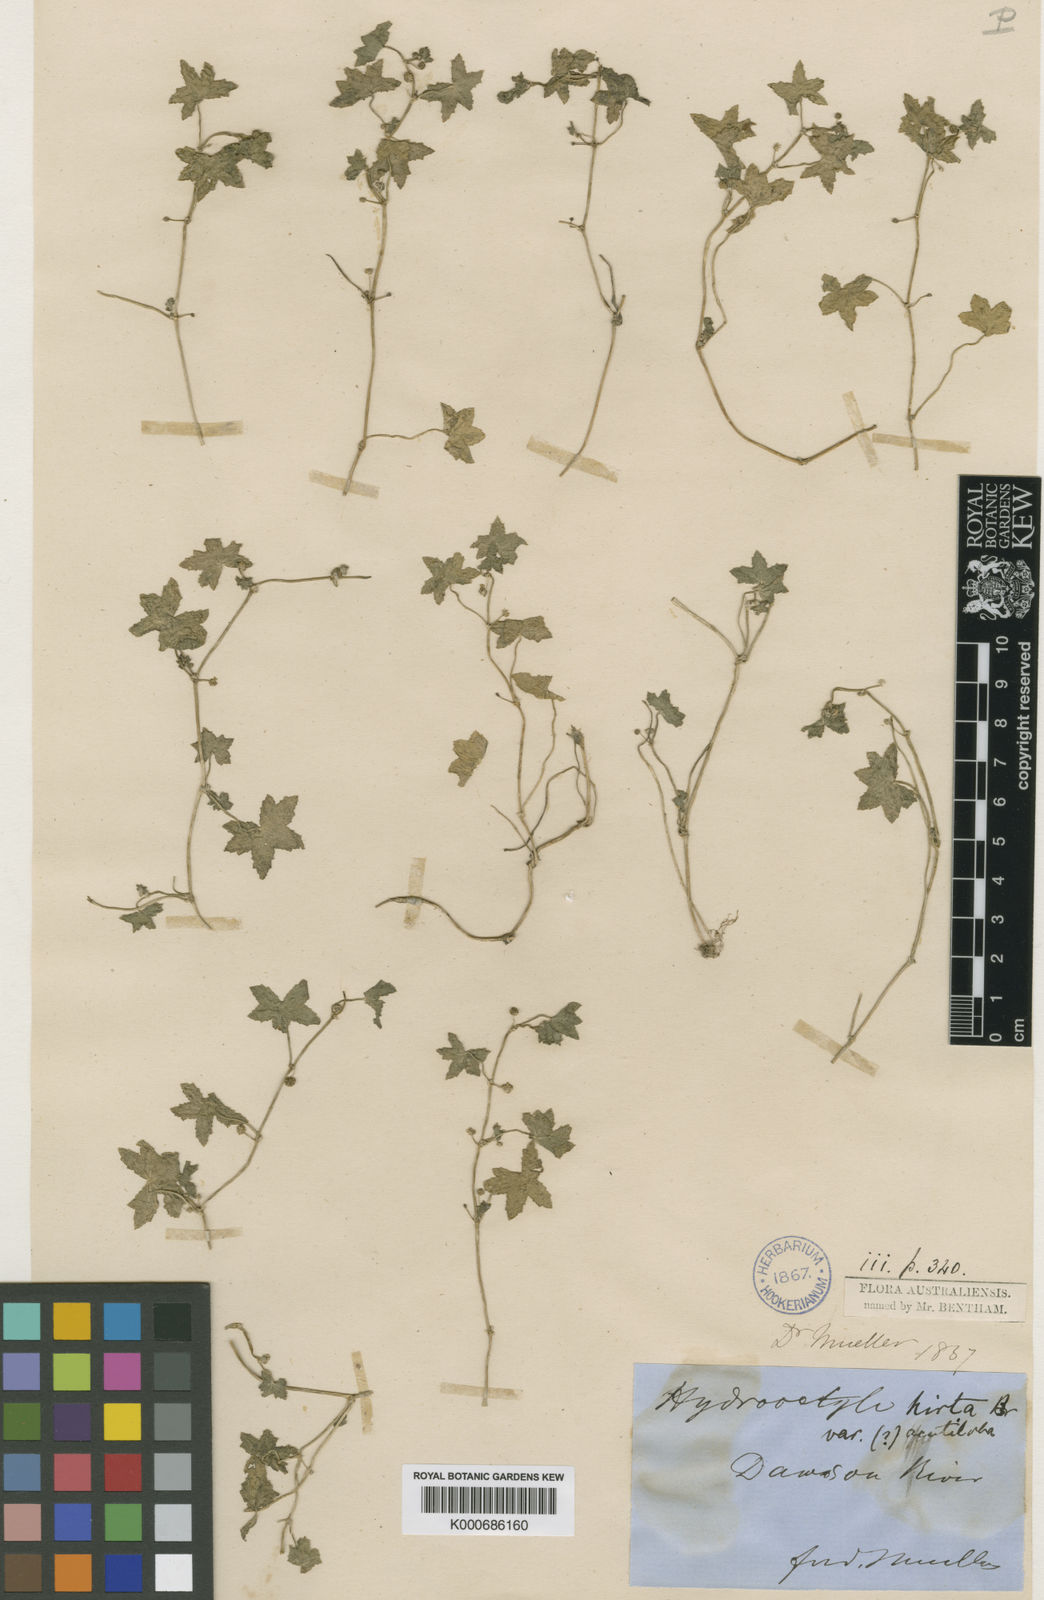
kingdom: Plantae
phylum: Tracheophyta
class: Magnoliopsida
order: Apiales
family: Araliaceae
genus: Hydrocotyle
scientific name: Hydrocotyle acutiloba
